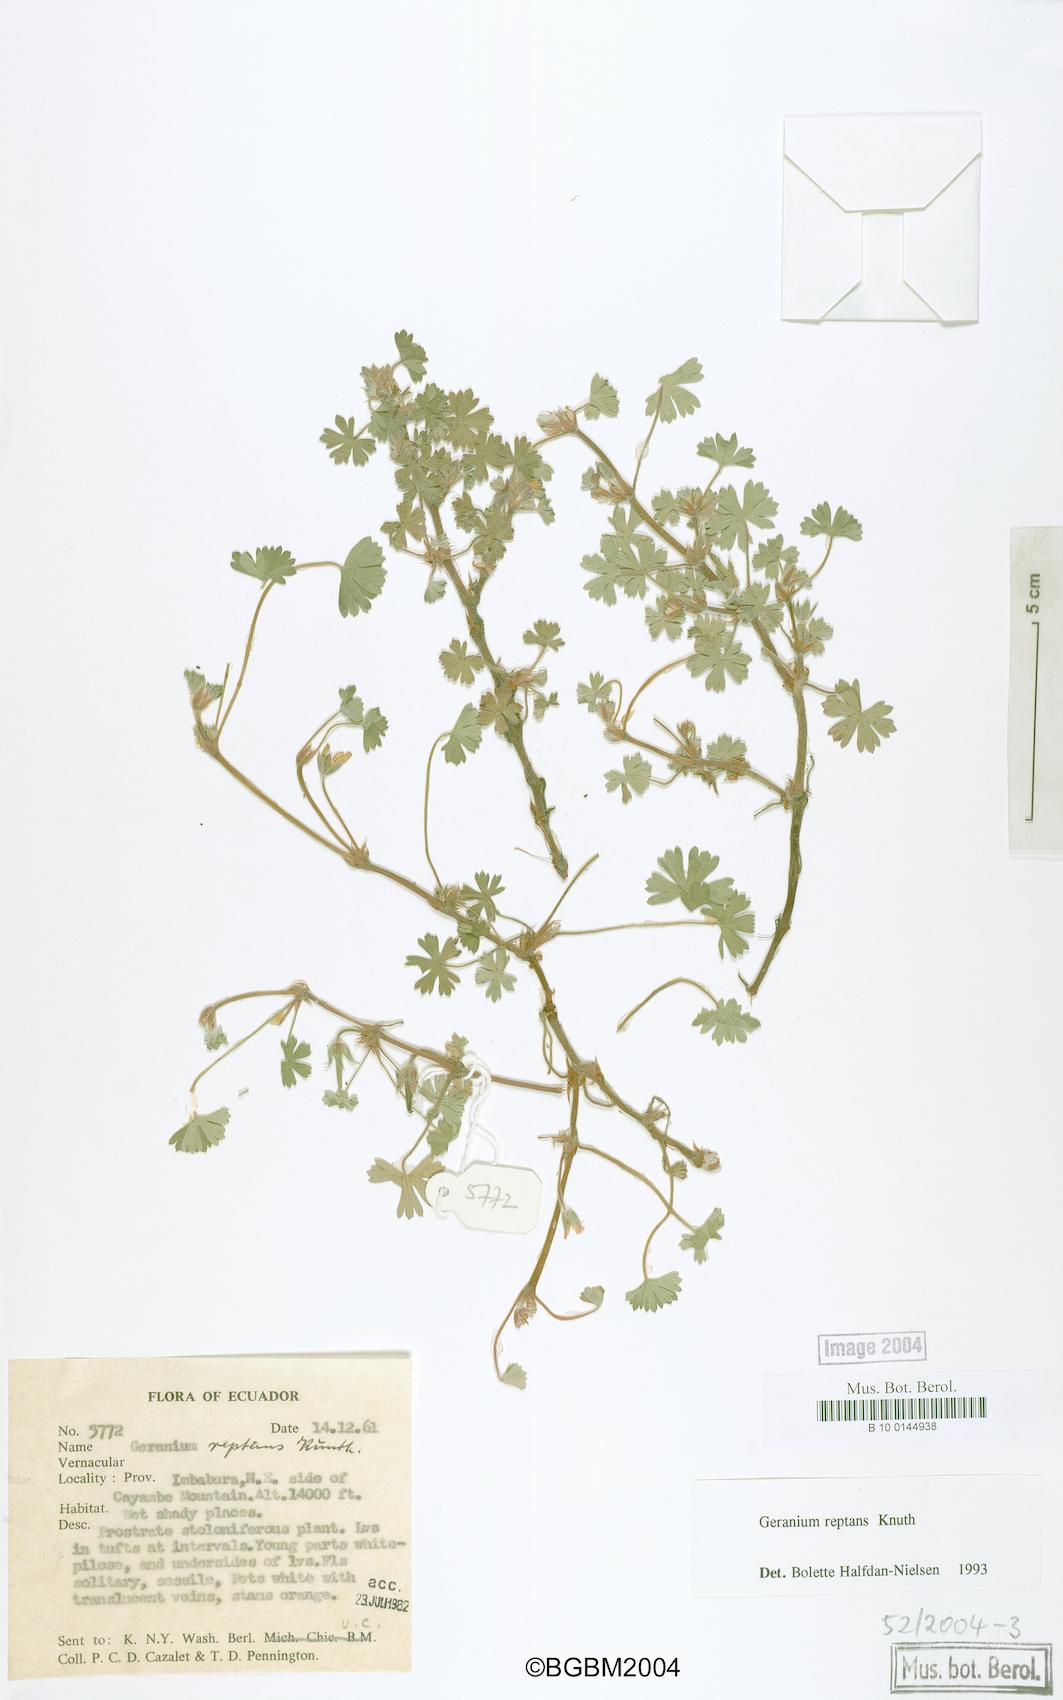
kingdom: Plantae
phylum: Tracheophyta
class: Magnoliopsida
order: Geraniales
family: Geraniaceae
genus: Geranium
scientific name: Geranium reptans
